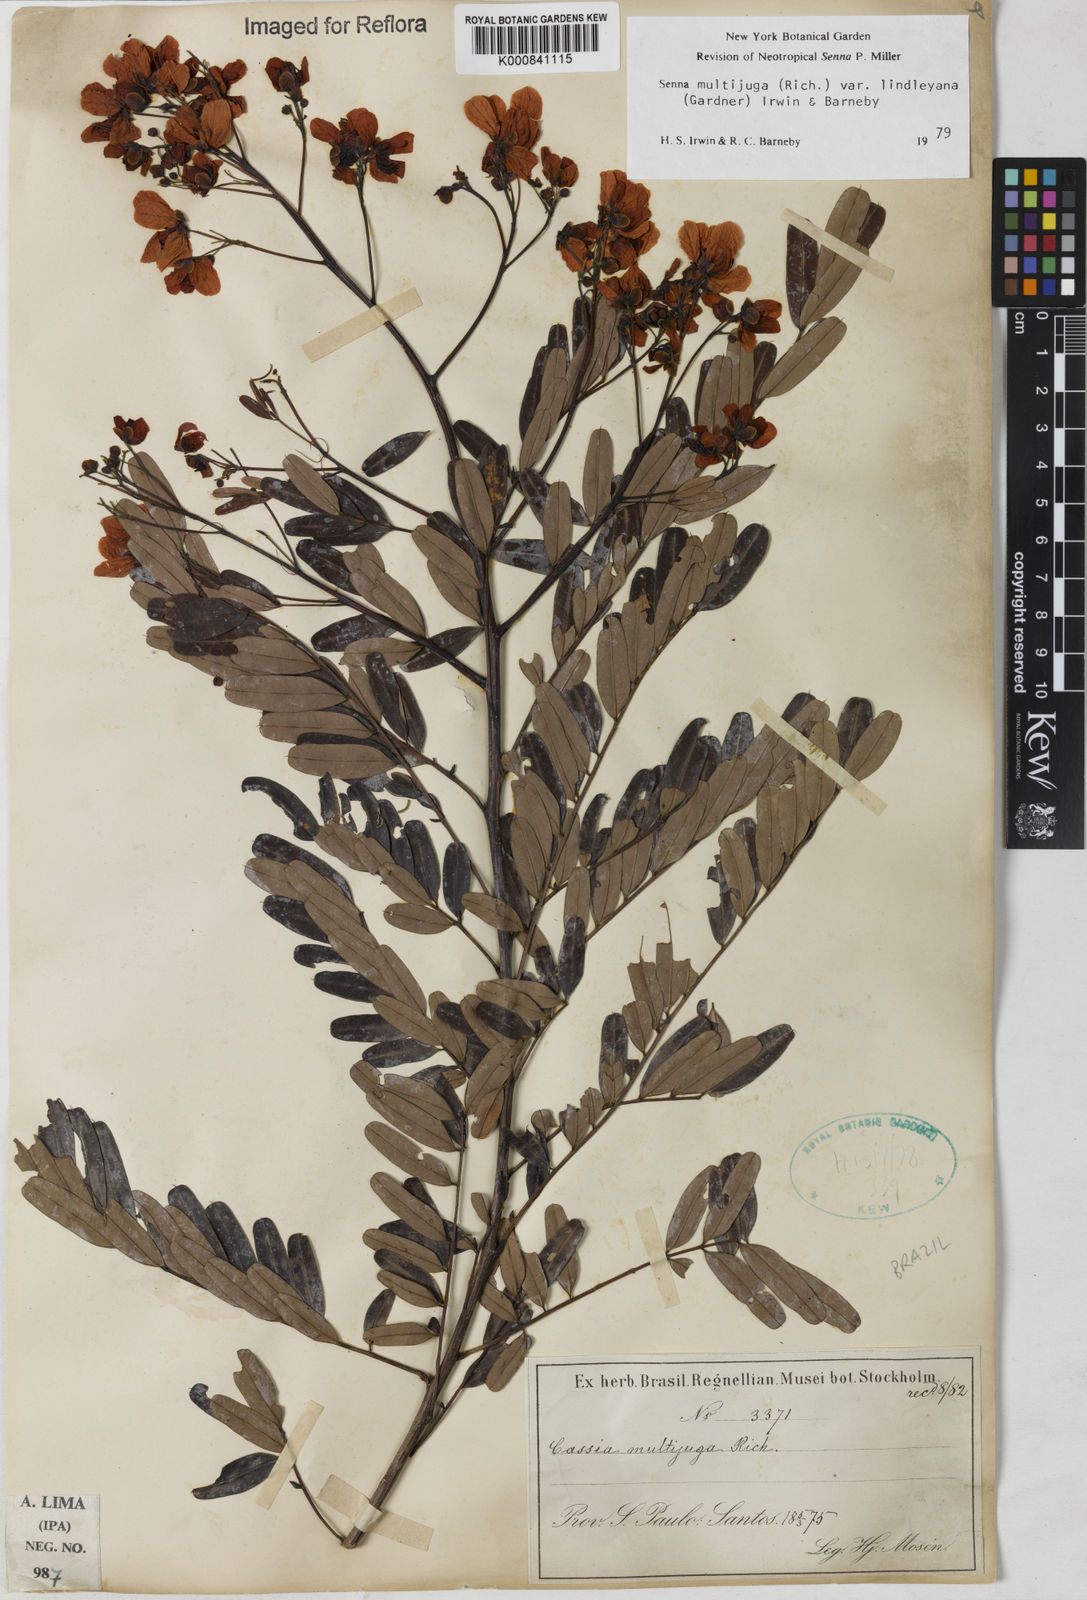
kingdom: Plantae
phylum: Tracheophyta
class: Magnoliopsida
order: Fabales
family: Fabaceae
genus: Senna
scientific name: Senna multijuga
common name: False sicklepod
